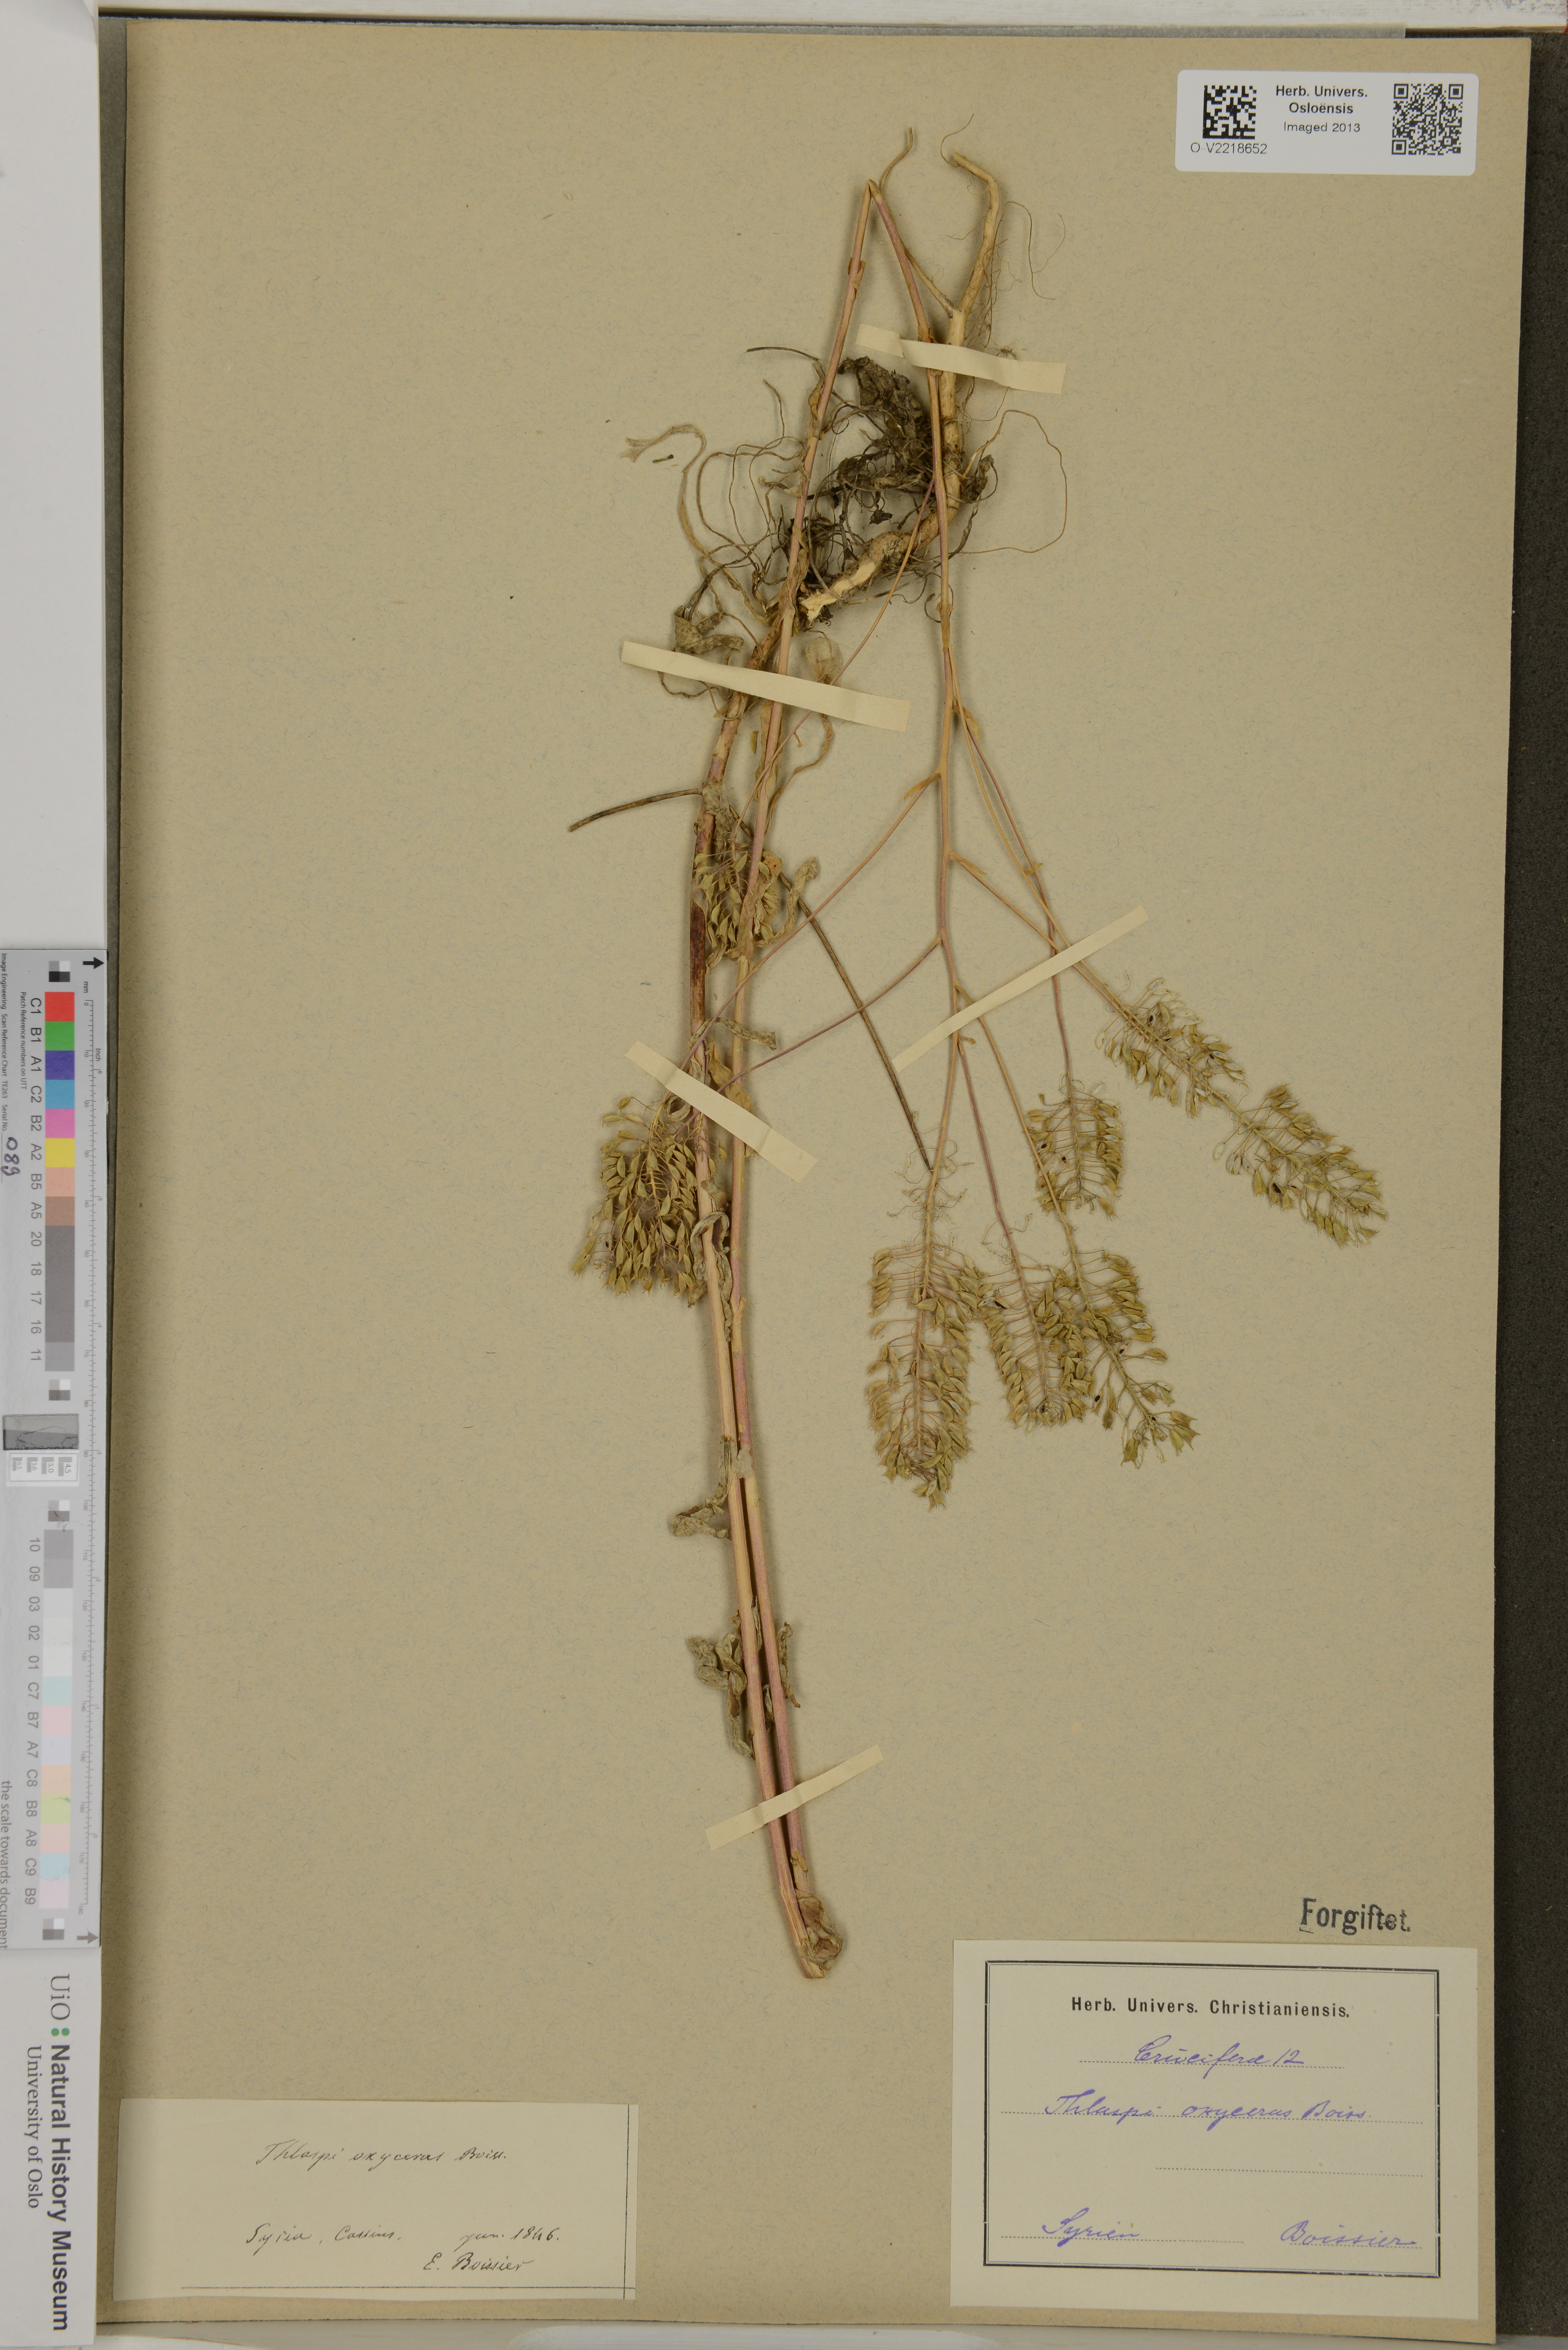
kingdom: Plantae
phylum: Tracheophyta
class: Magnoliopsida
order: Brassicales
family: Brassicaceae
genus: Thlaspi
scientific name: Thlaspi oxyceras
